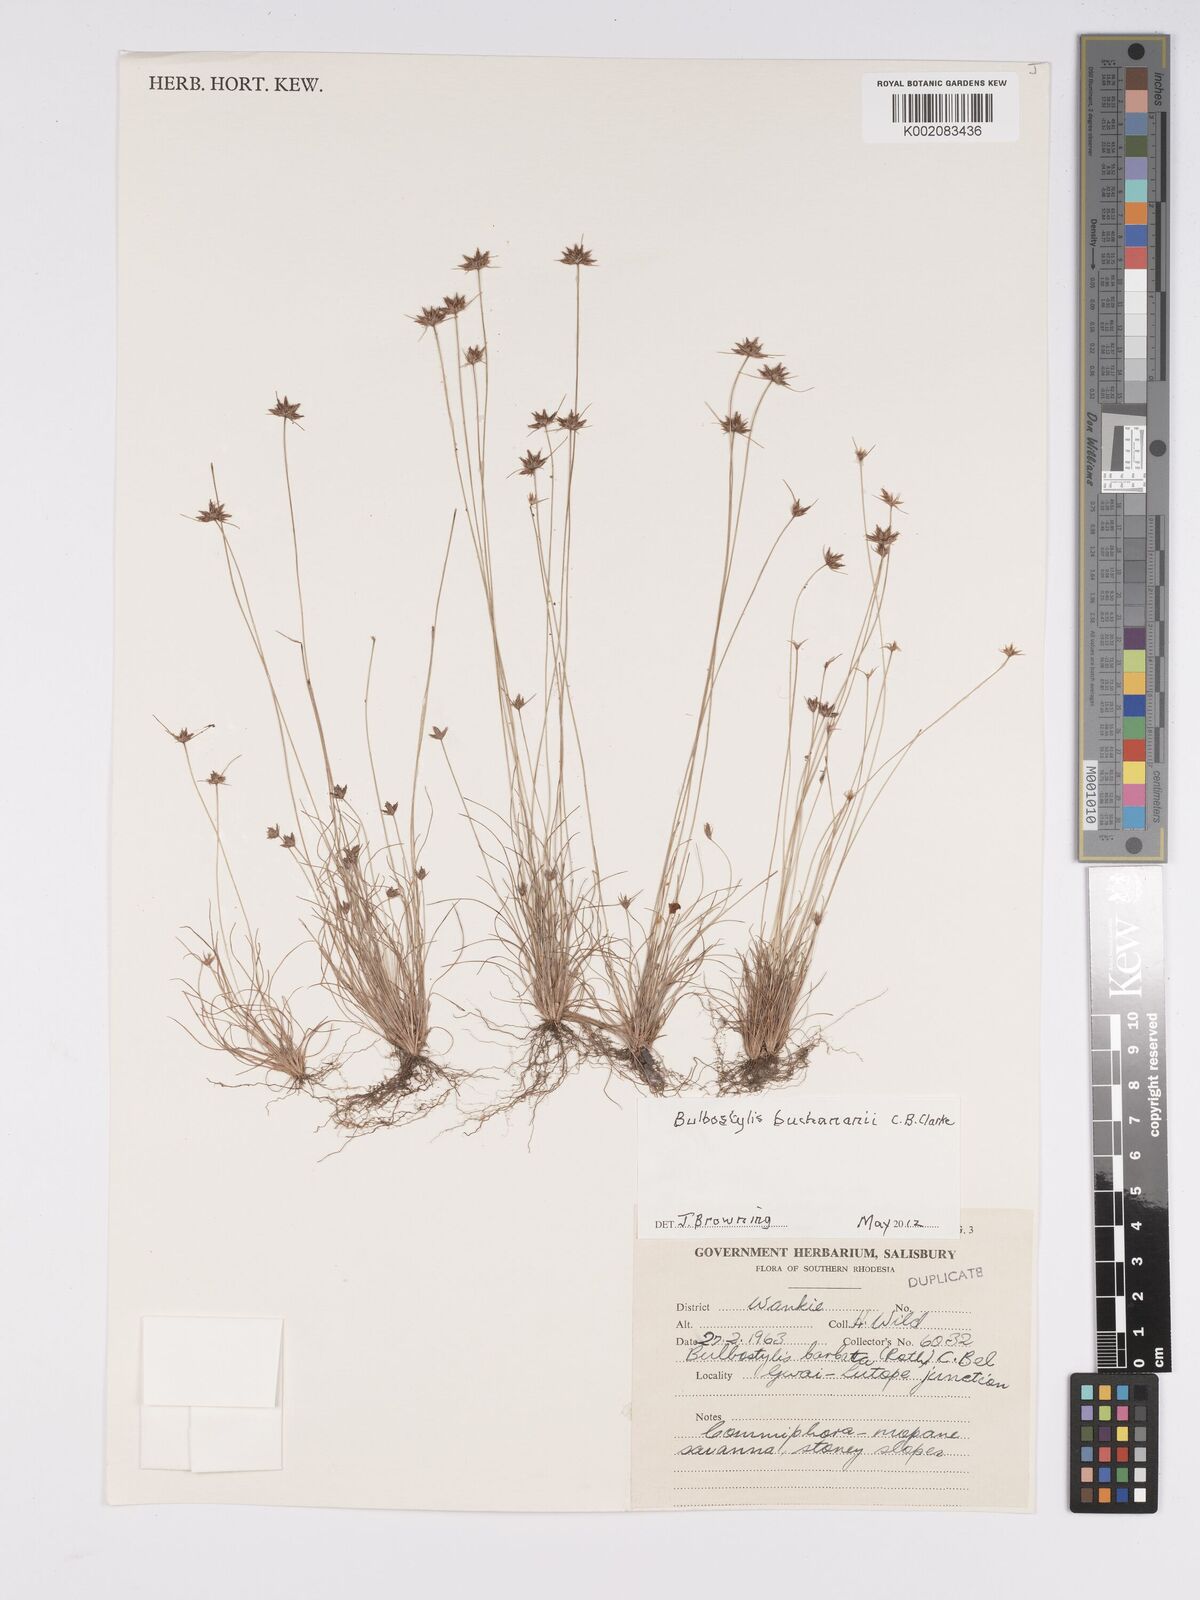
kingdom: Plantae
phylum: Tracheophyta
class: Liliopsida
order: Poales
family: Cyperaceae
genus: Bulbostylis
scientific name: Bulbostylis buchananii
